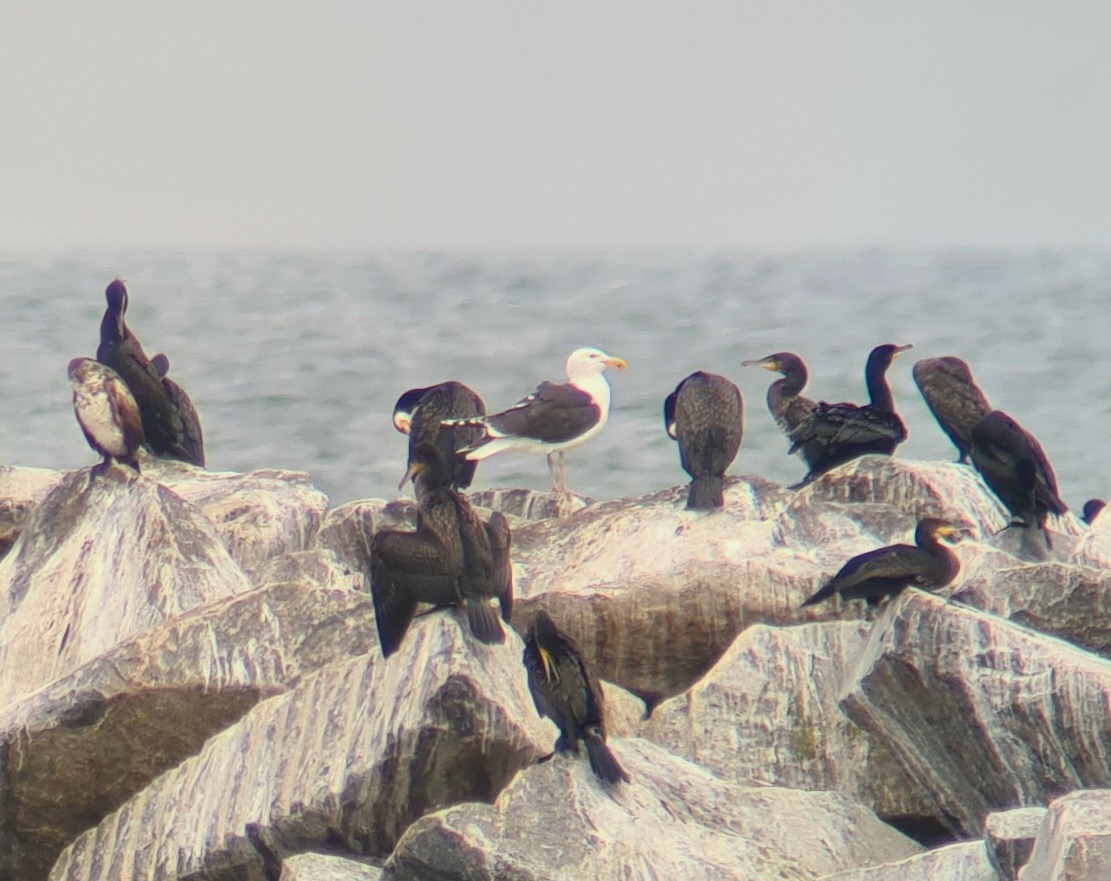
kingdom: Animalia
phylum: Chordata
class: Aves
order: Charadriiformes
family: Laridae
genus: Larus
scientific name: Larus marinus
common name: Svartbag
